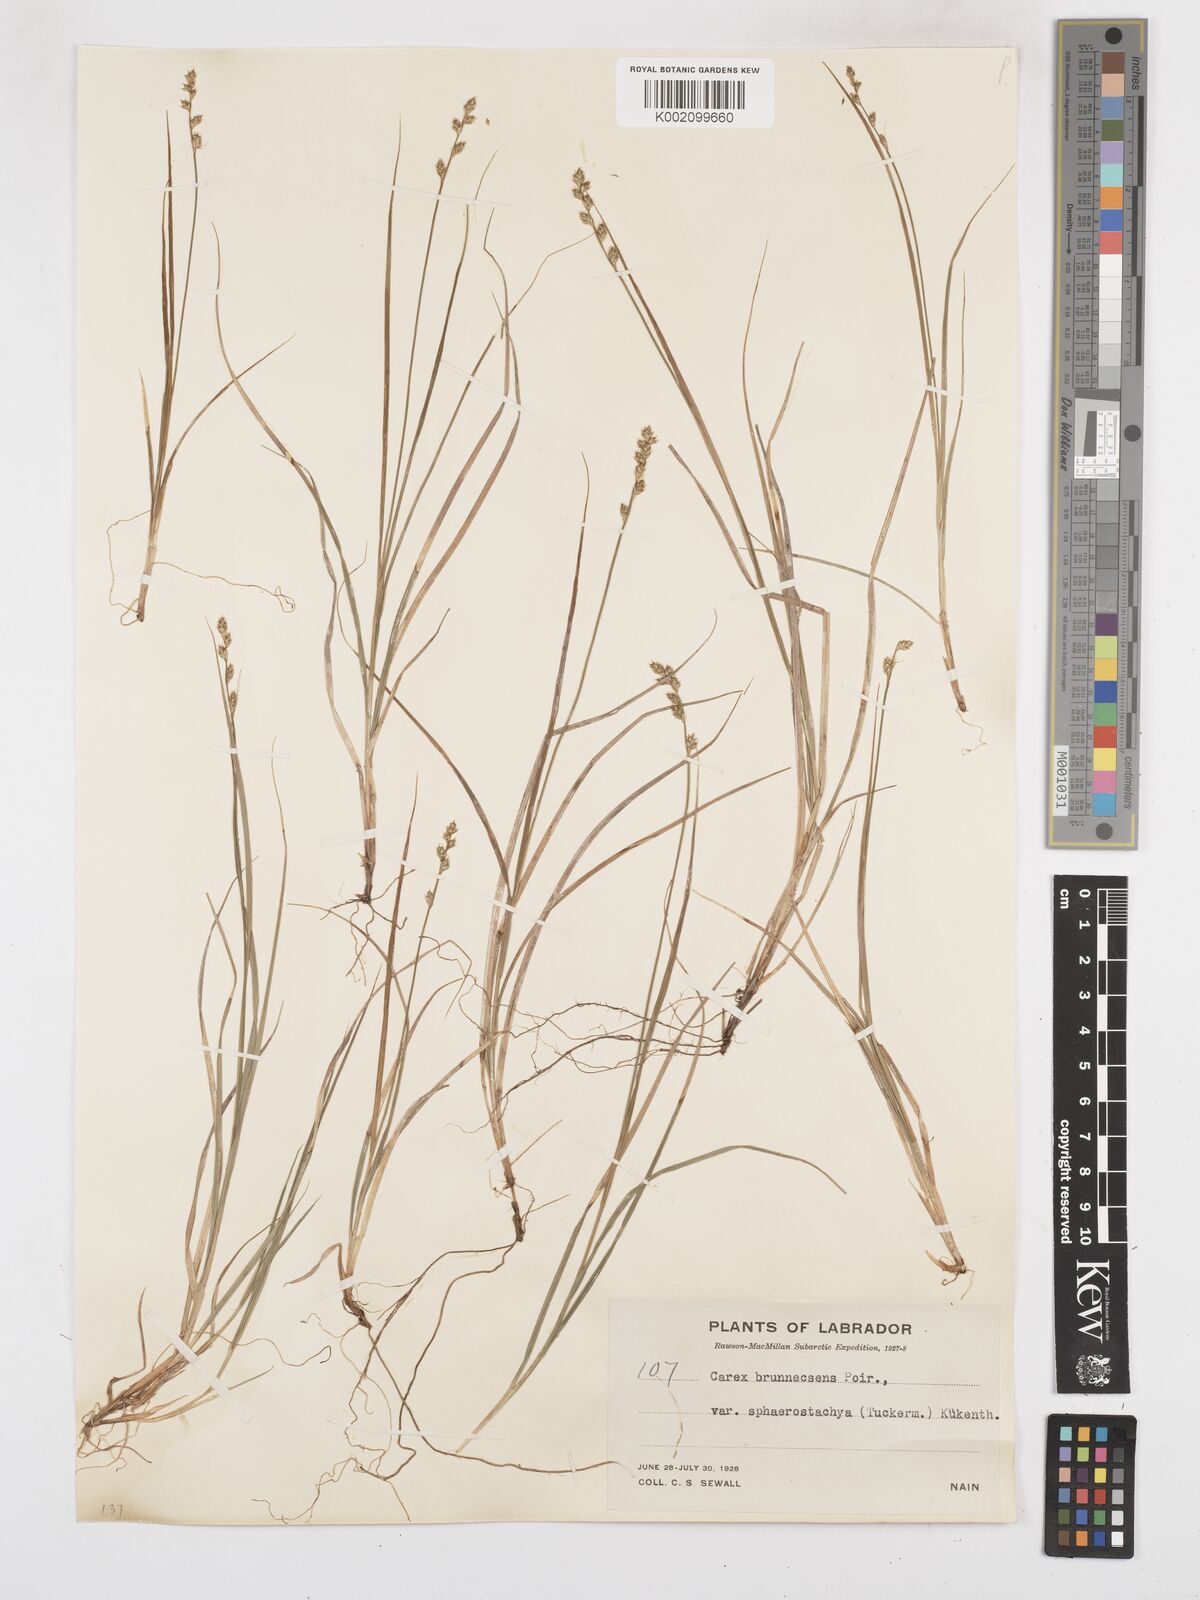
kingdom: Plantae
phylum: Tracheophyta
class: Liliopsida
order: Poales
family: Cyperaceae
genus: Carex
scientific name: Carex brunnescens
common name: Brown sedge
